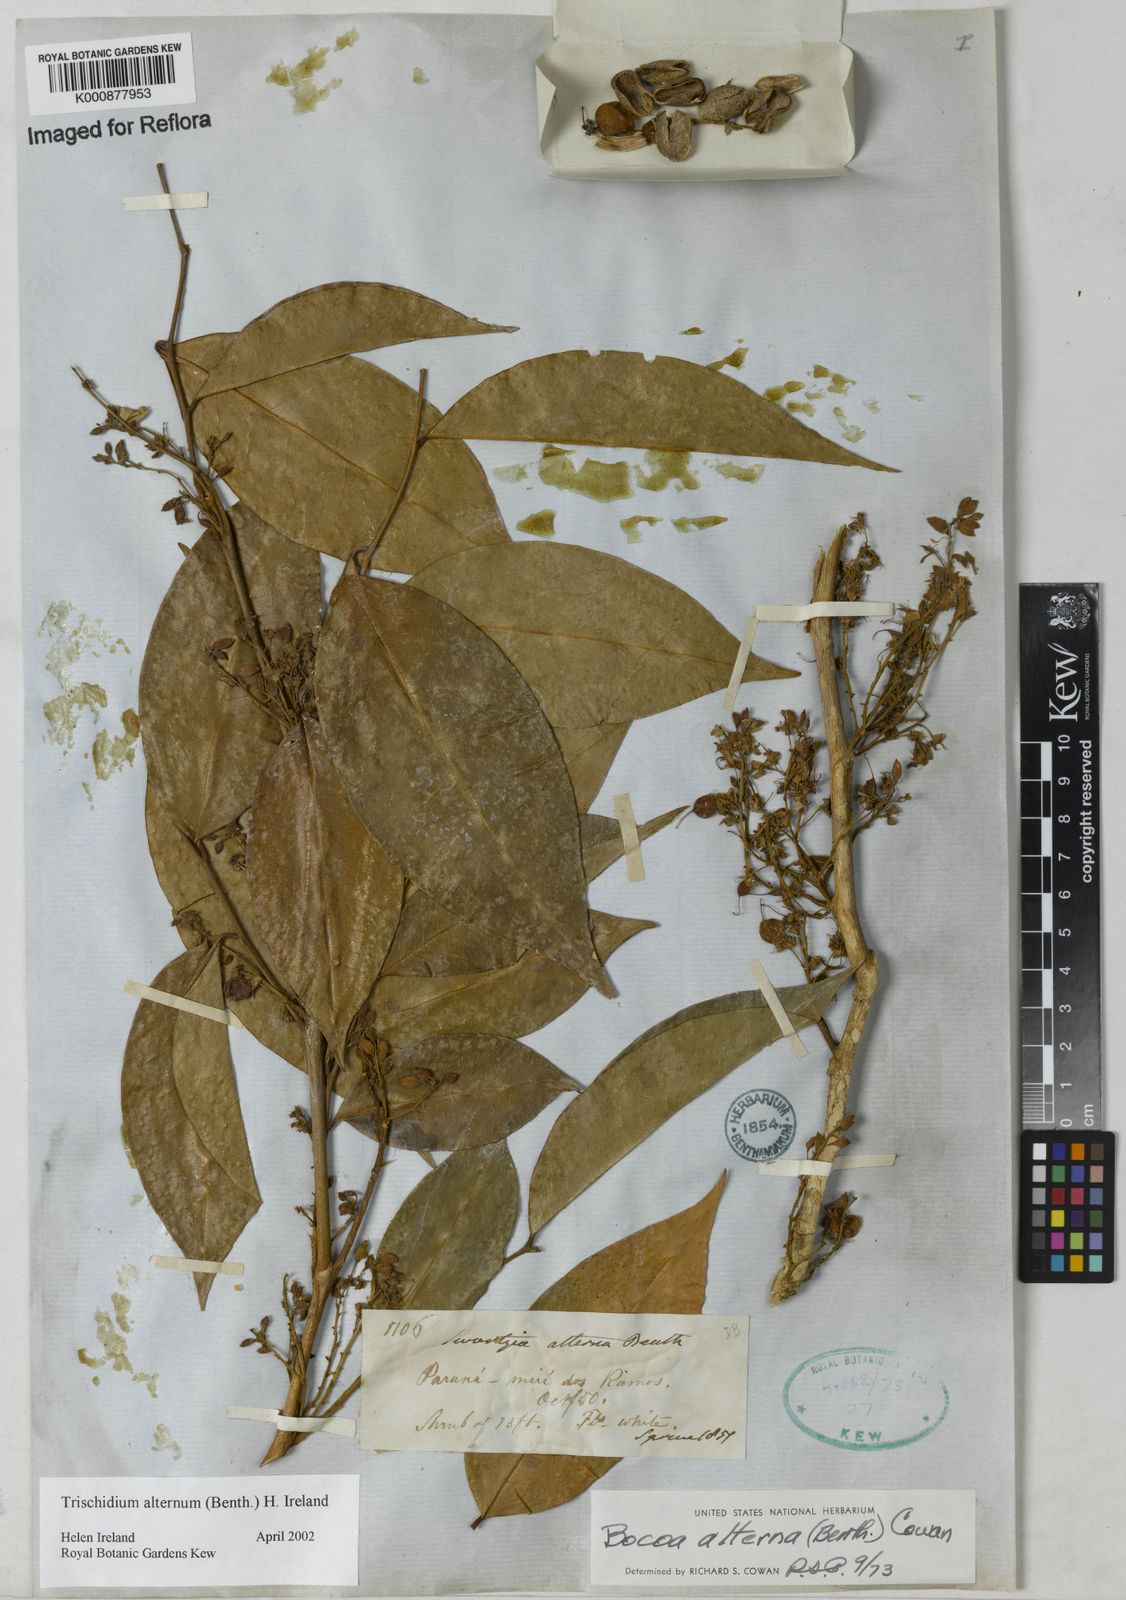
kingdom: Plantae
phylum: Tracheophyta
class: Magnoliopsida
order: Fabales
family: Fabaceae
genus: Trischidium
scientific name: Trischidium alternum
